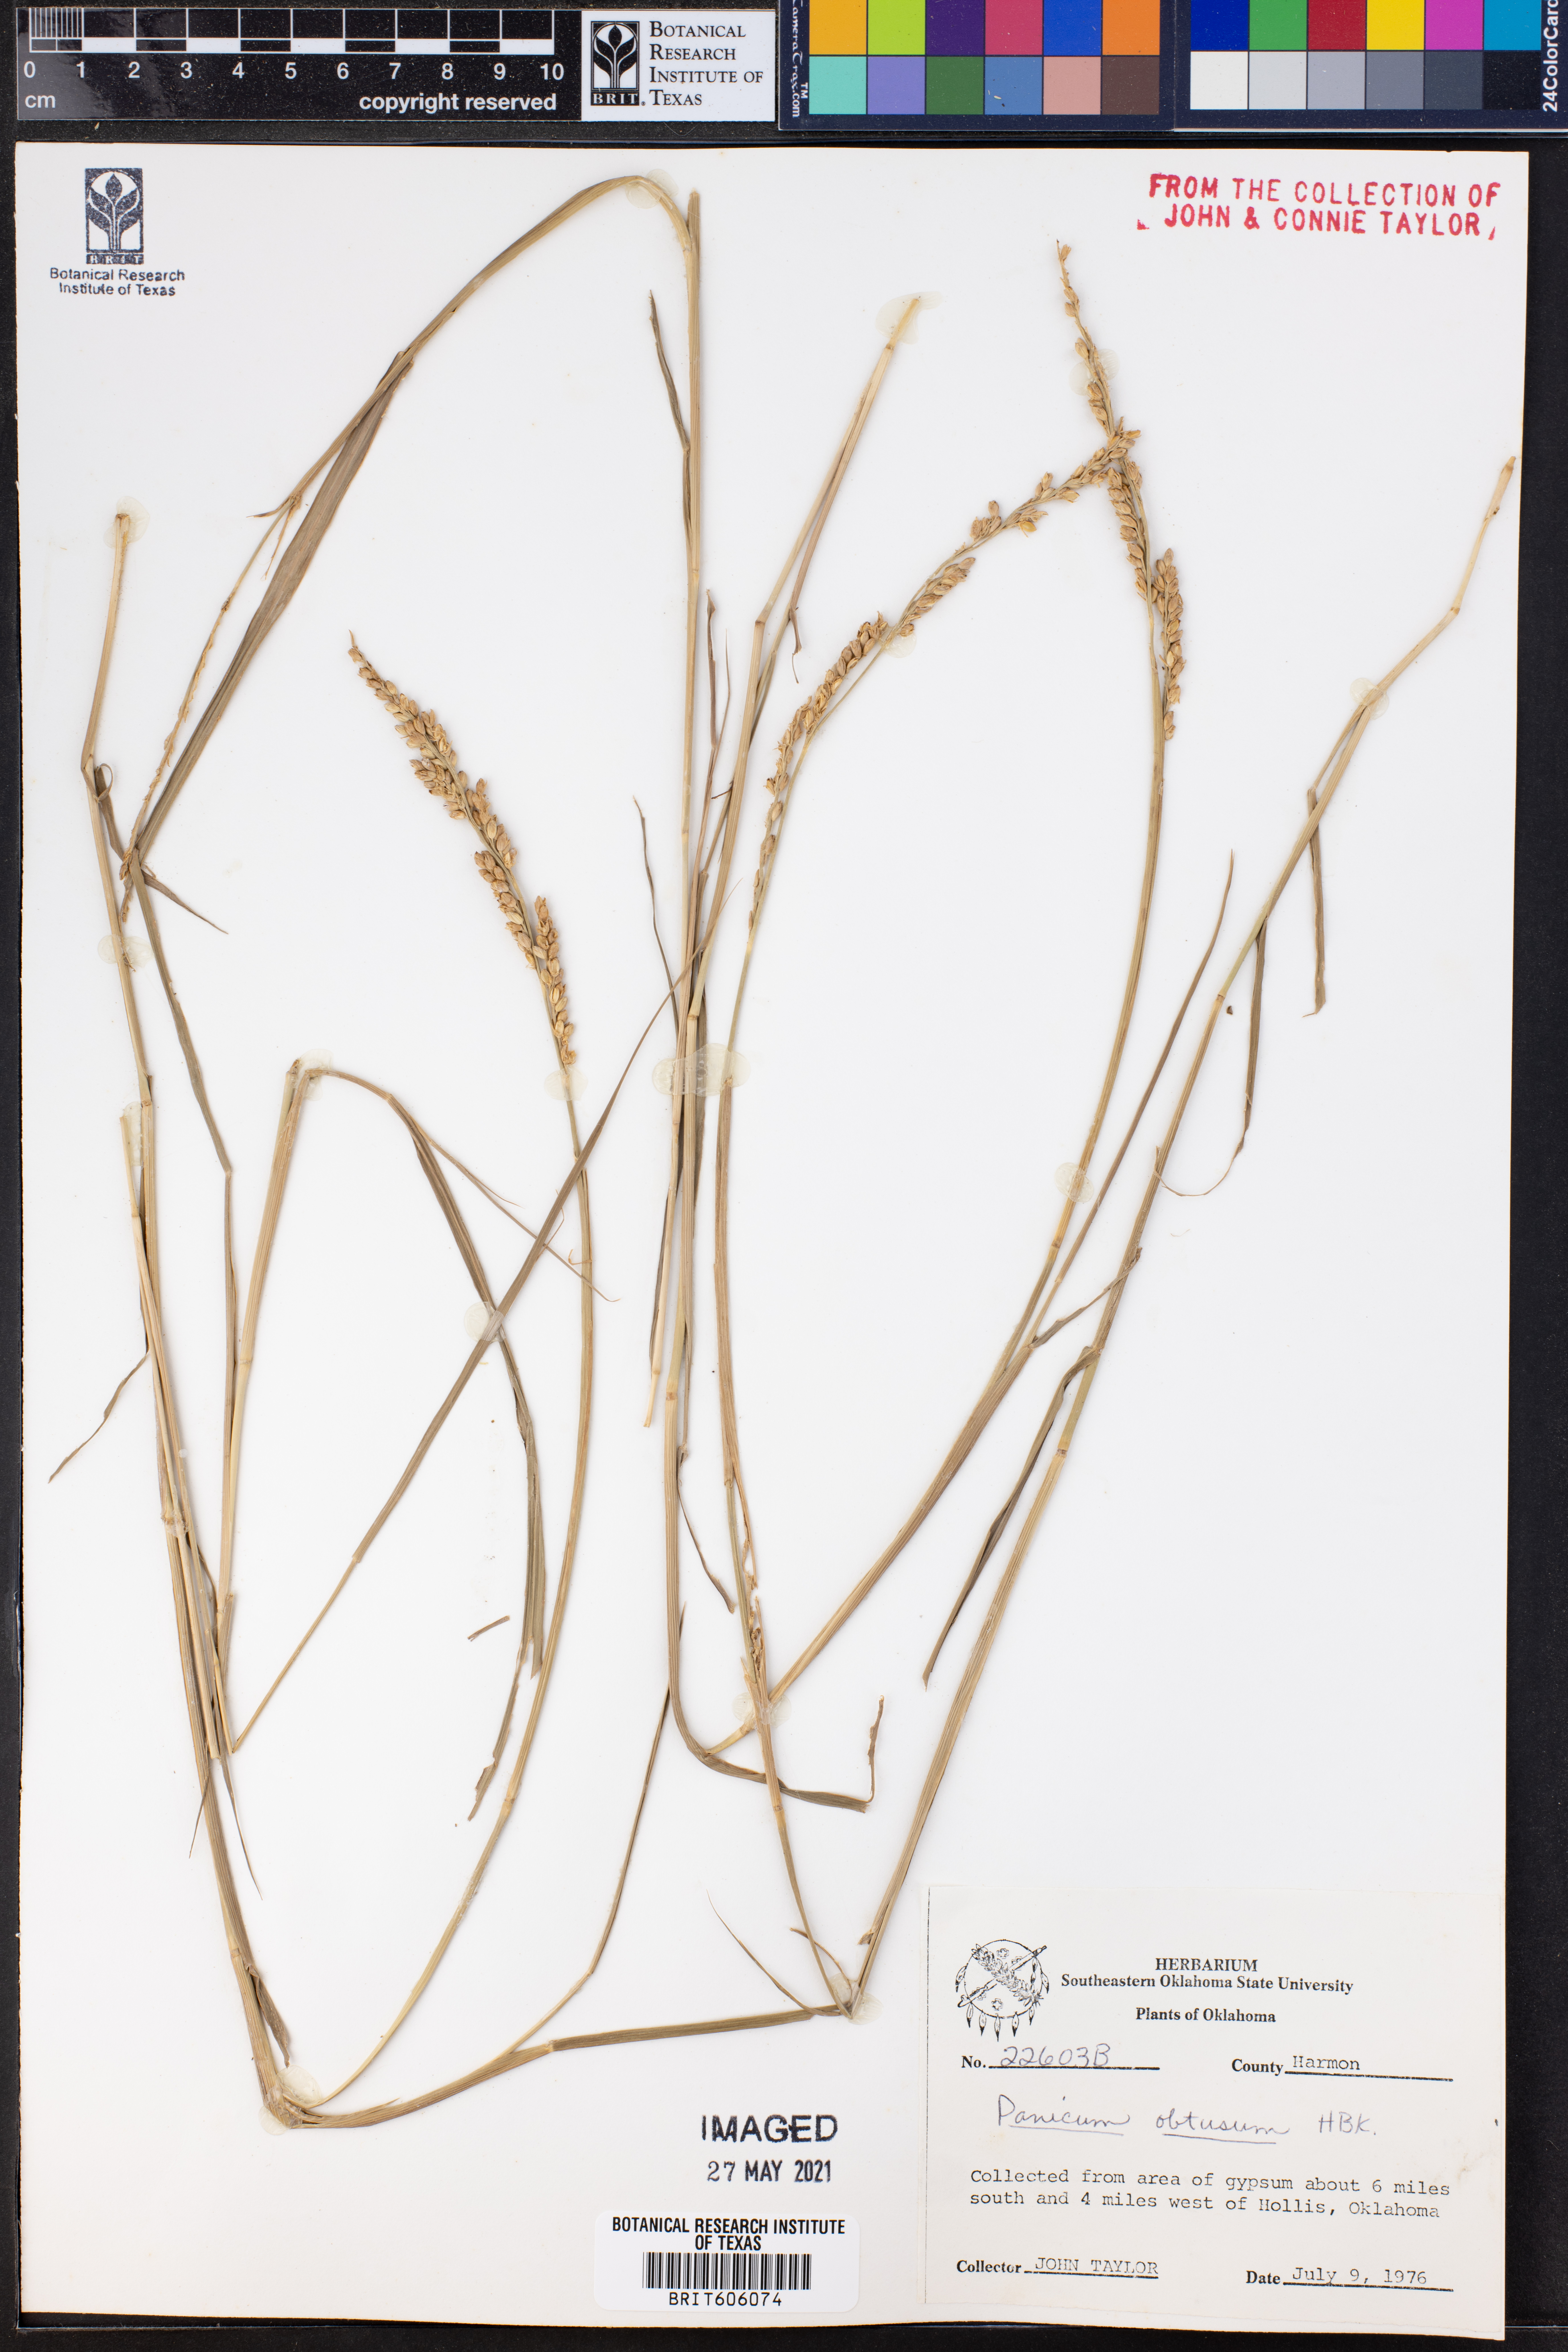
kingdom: Plantae
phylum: Tracheophyta
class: Liliopsida
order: Poales
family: Poaceae
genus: Hopia
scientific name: Hopia obtusa
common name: Vine-mesquite
